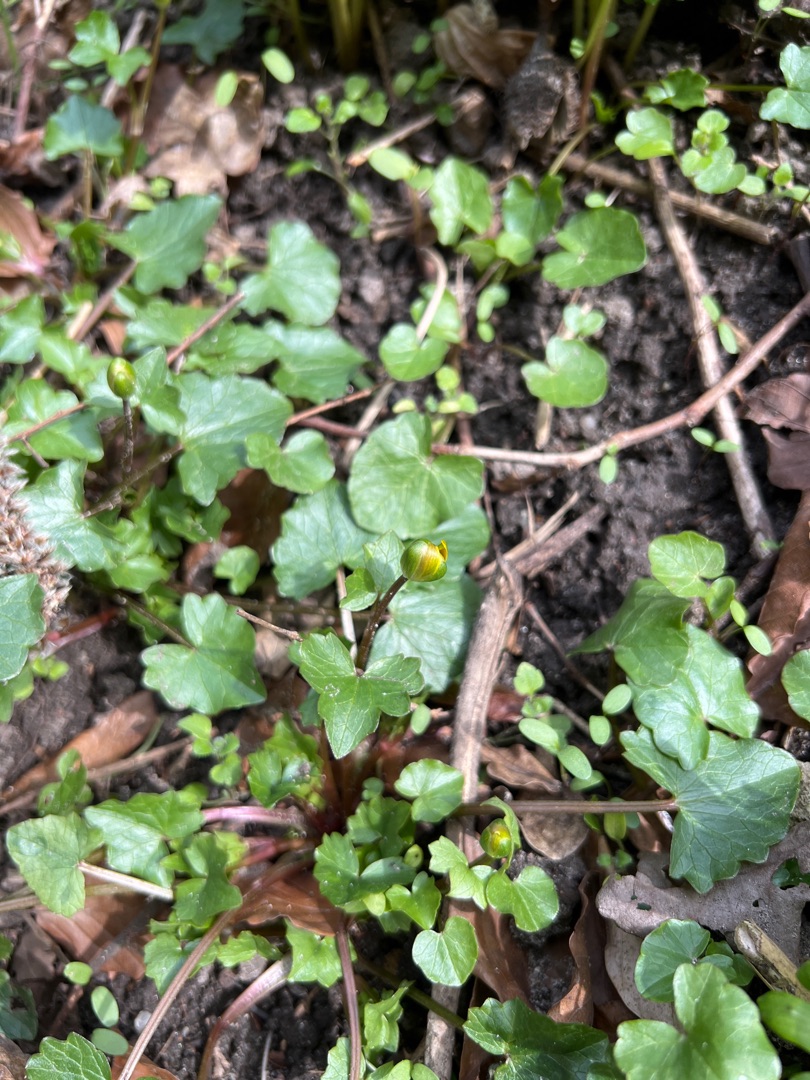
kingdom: Plantae
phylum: Tracheophyta
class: Magnoliopsida
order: Ranunculales
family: Ranunculaceae
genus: Ficaria
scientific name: Ficaria verna
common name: Almindelig vorterod
